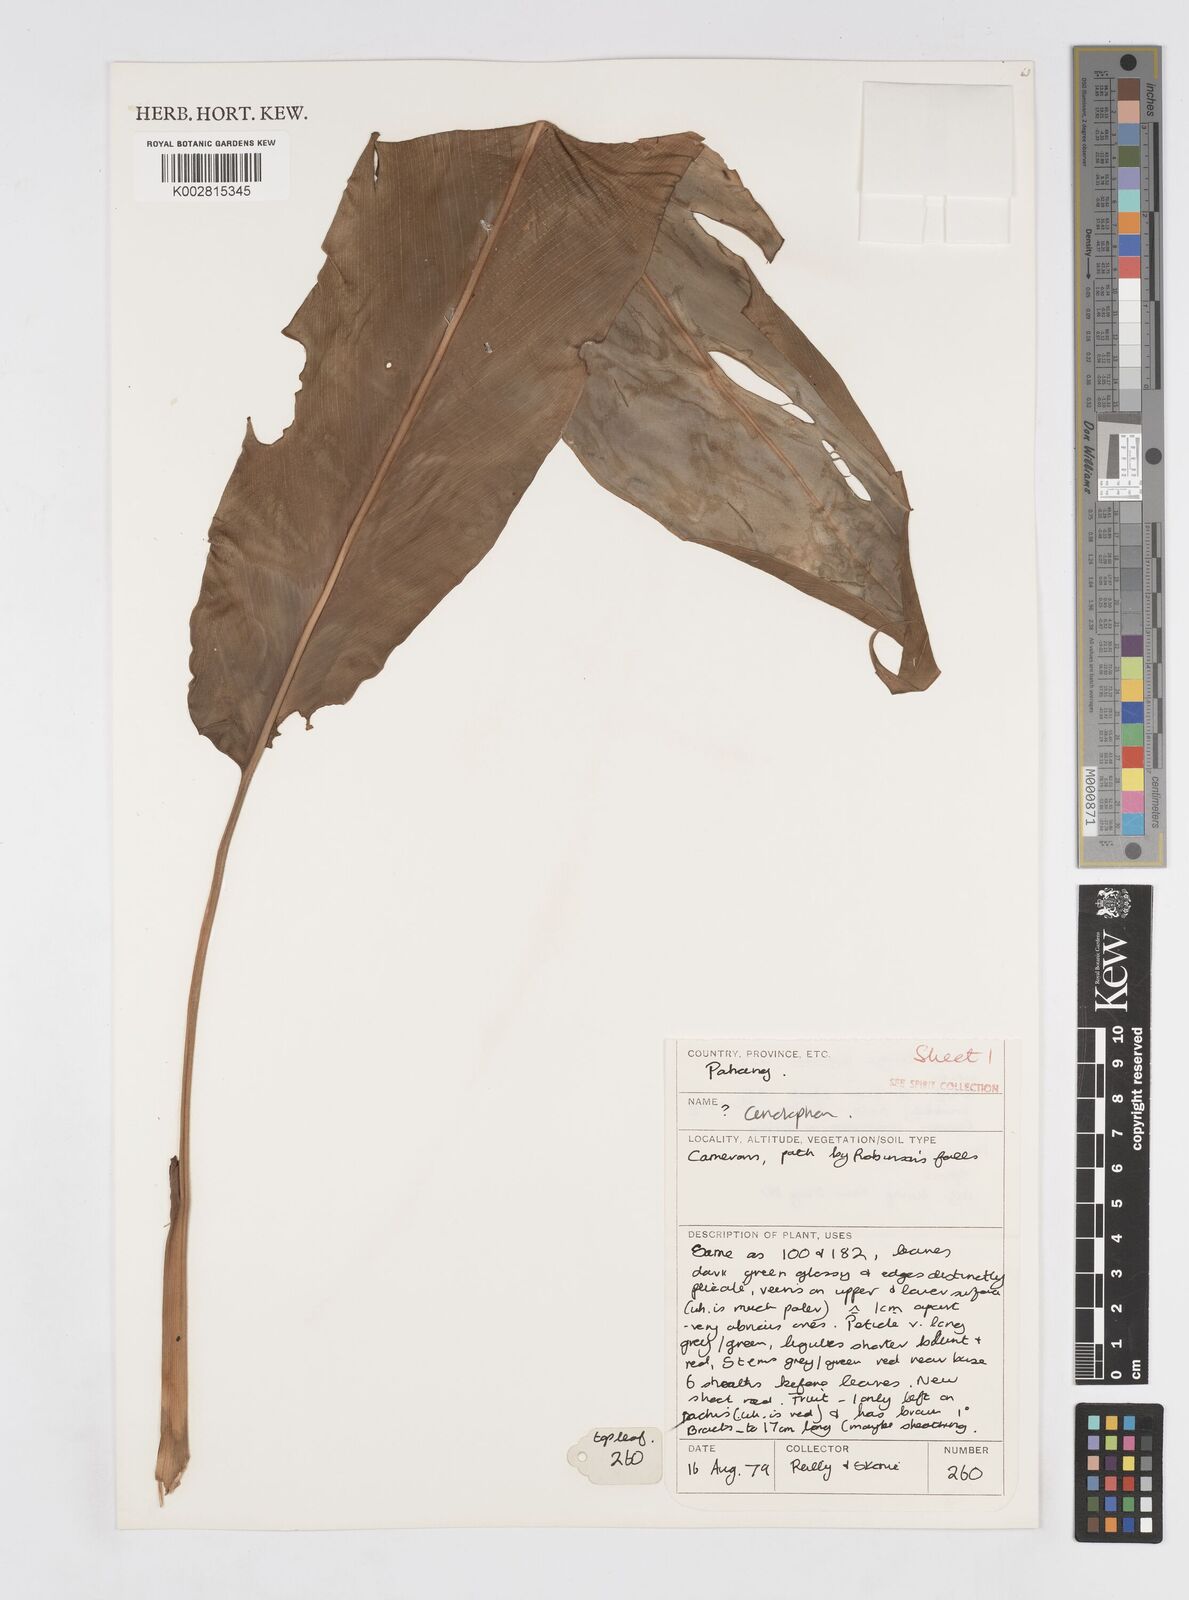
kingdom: Plantae
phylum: Tracheophyta
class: Liliopsida
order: Zingiberales
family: Zingiberaceae
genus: Alpinia
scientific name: Alpinia
